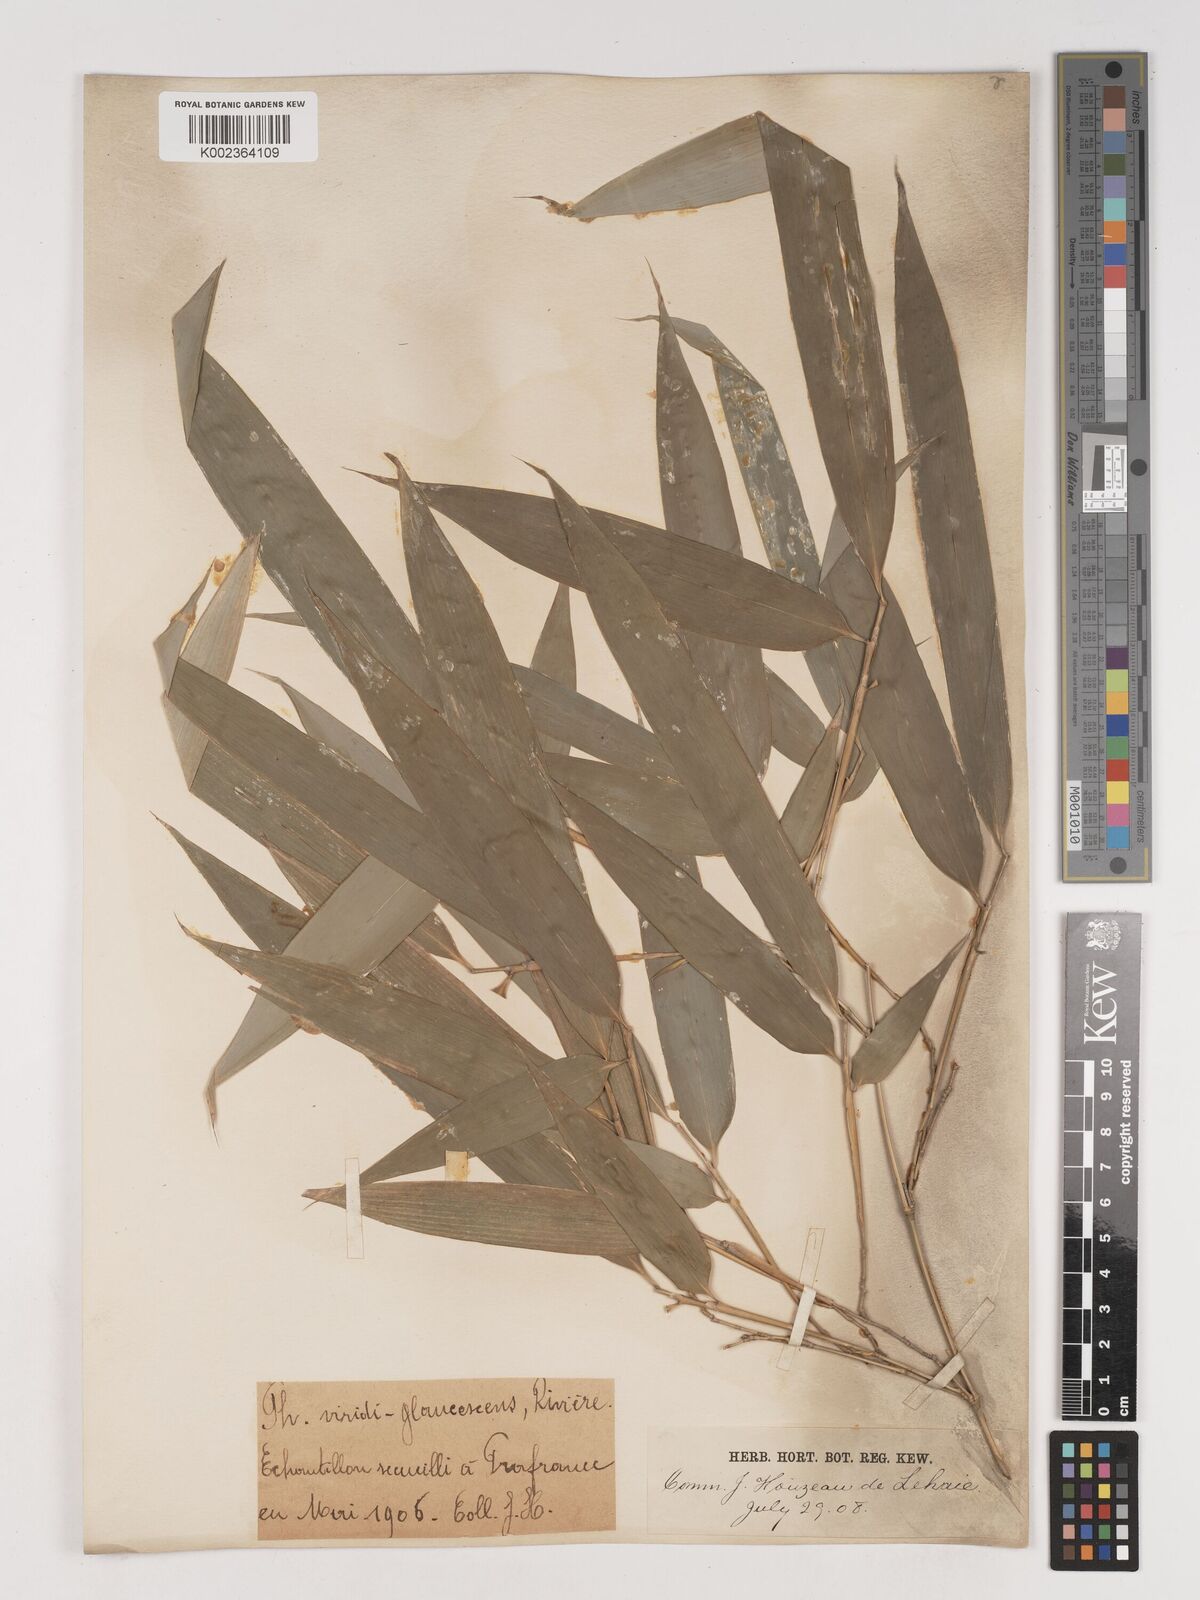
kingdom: Plantae
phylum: Tracheophyta
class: Liliopsida
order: Poales
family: Poaceae
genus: Phyllostachys
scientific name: Phyllostachys viridiglaucescens
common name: Greenwax golden bamboo
